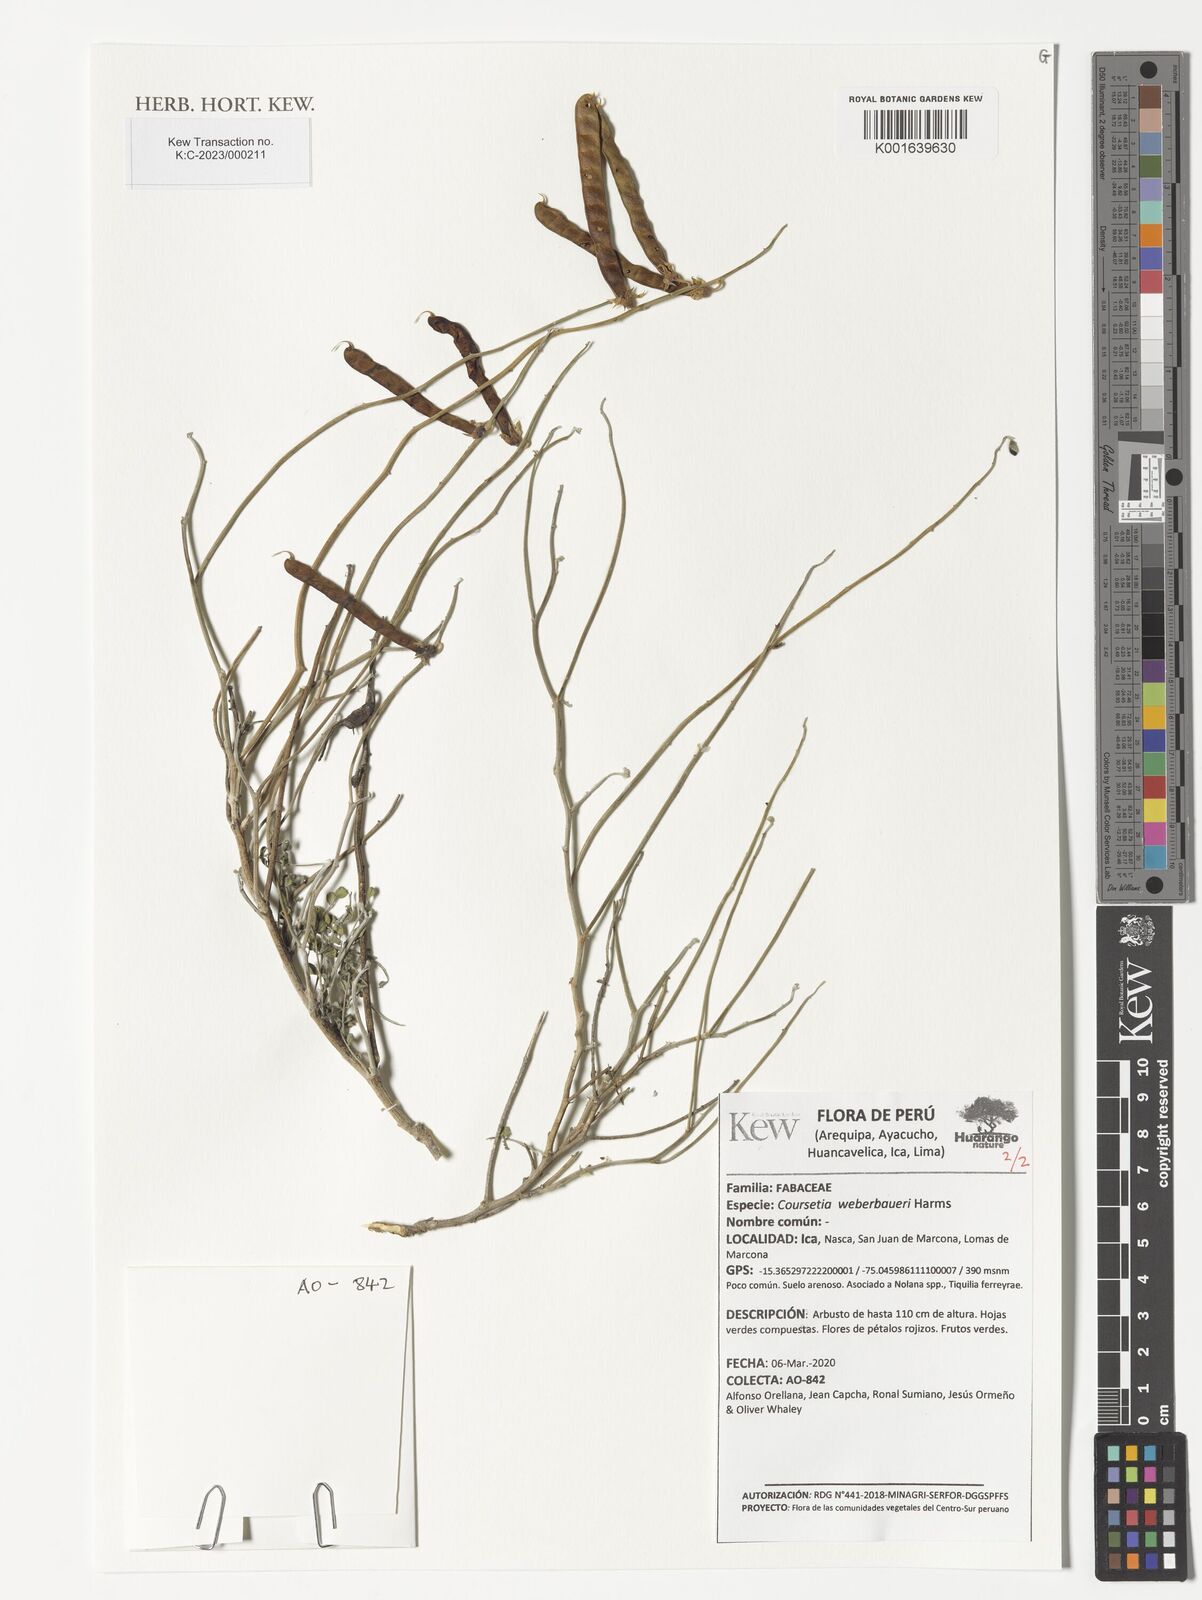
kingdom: Plantae
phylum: Tracheophyta
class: Magnoliopsida
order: Fabales
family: Fabaceae
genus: Poissonia
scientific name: Poissonia weberbaueri
